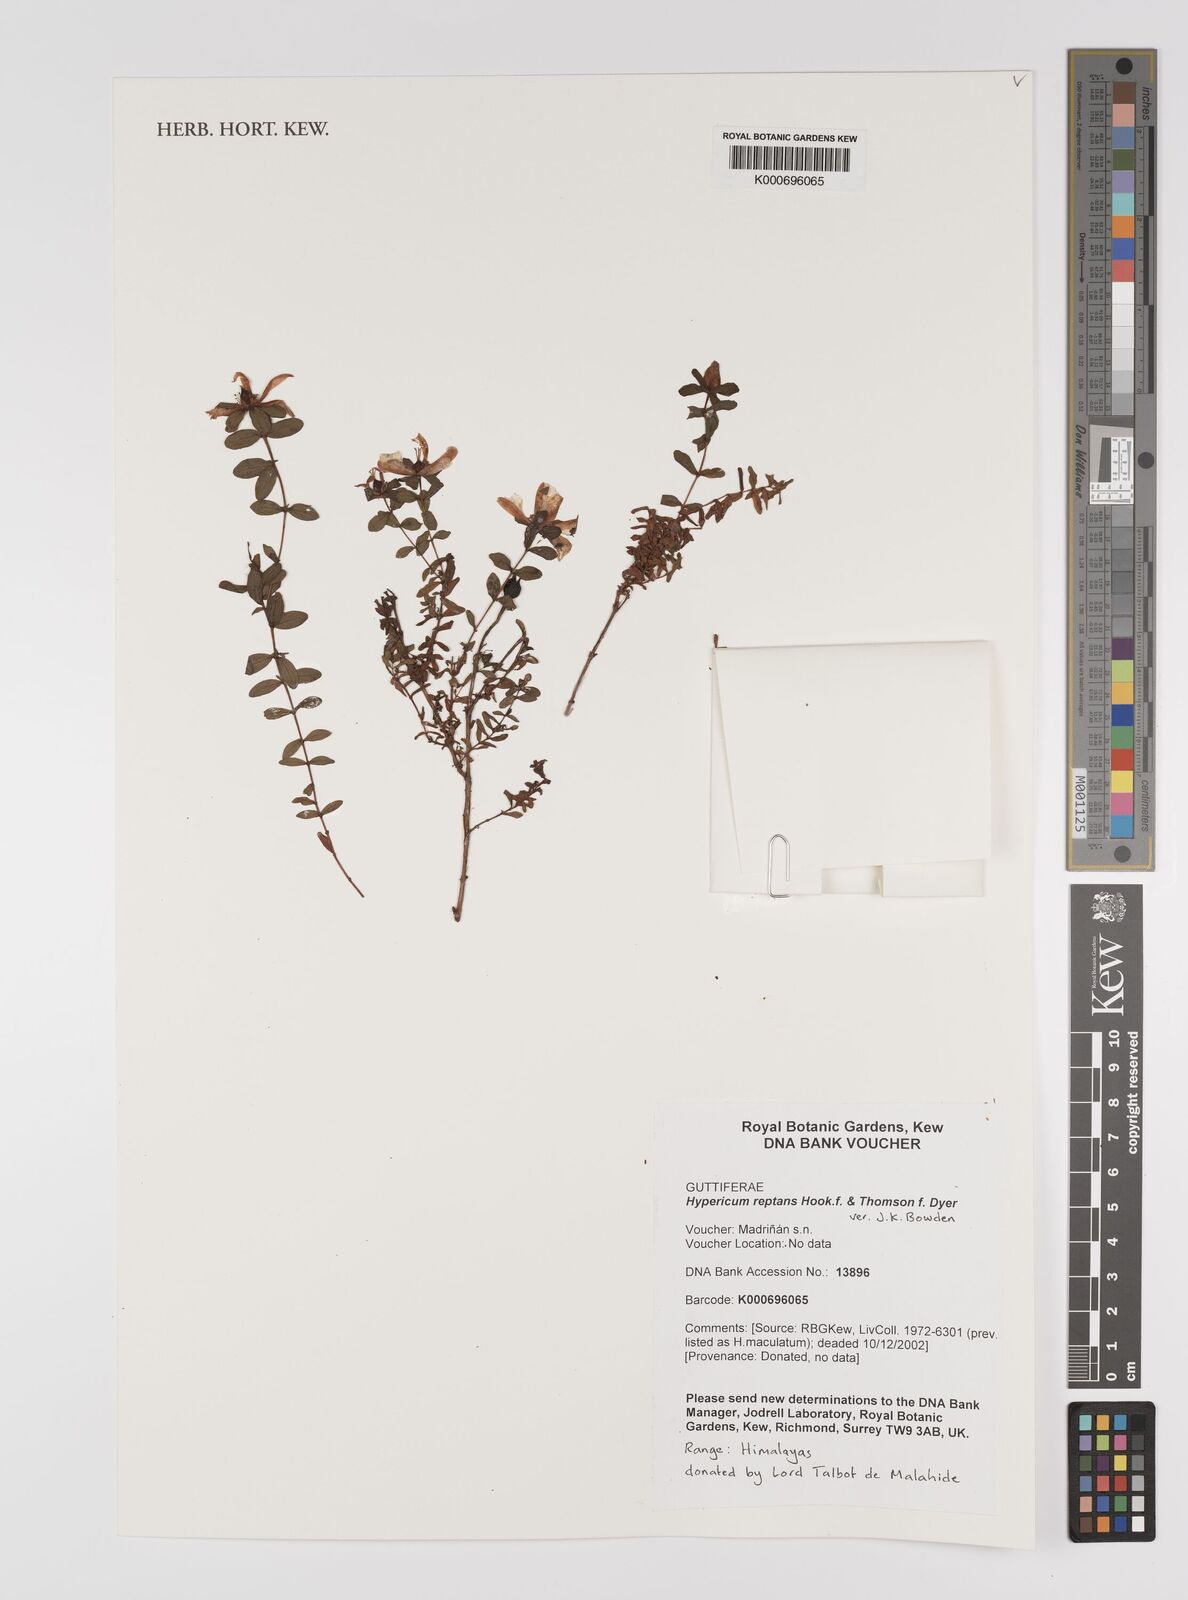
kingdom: Plantae
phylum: Tracheophyta
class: Magnoliopsida
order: Malpighiales
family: Hypericaceae
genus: Hypericum
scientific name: Hypericum reptans
